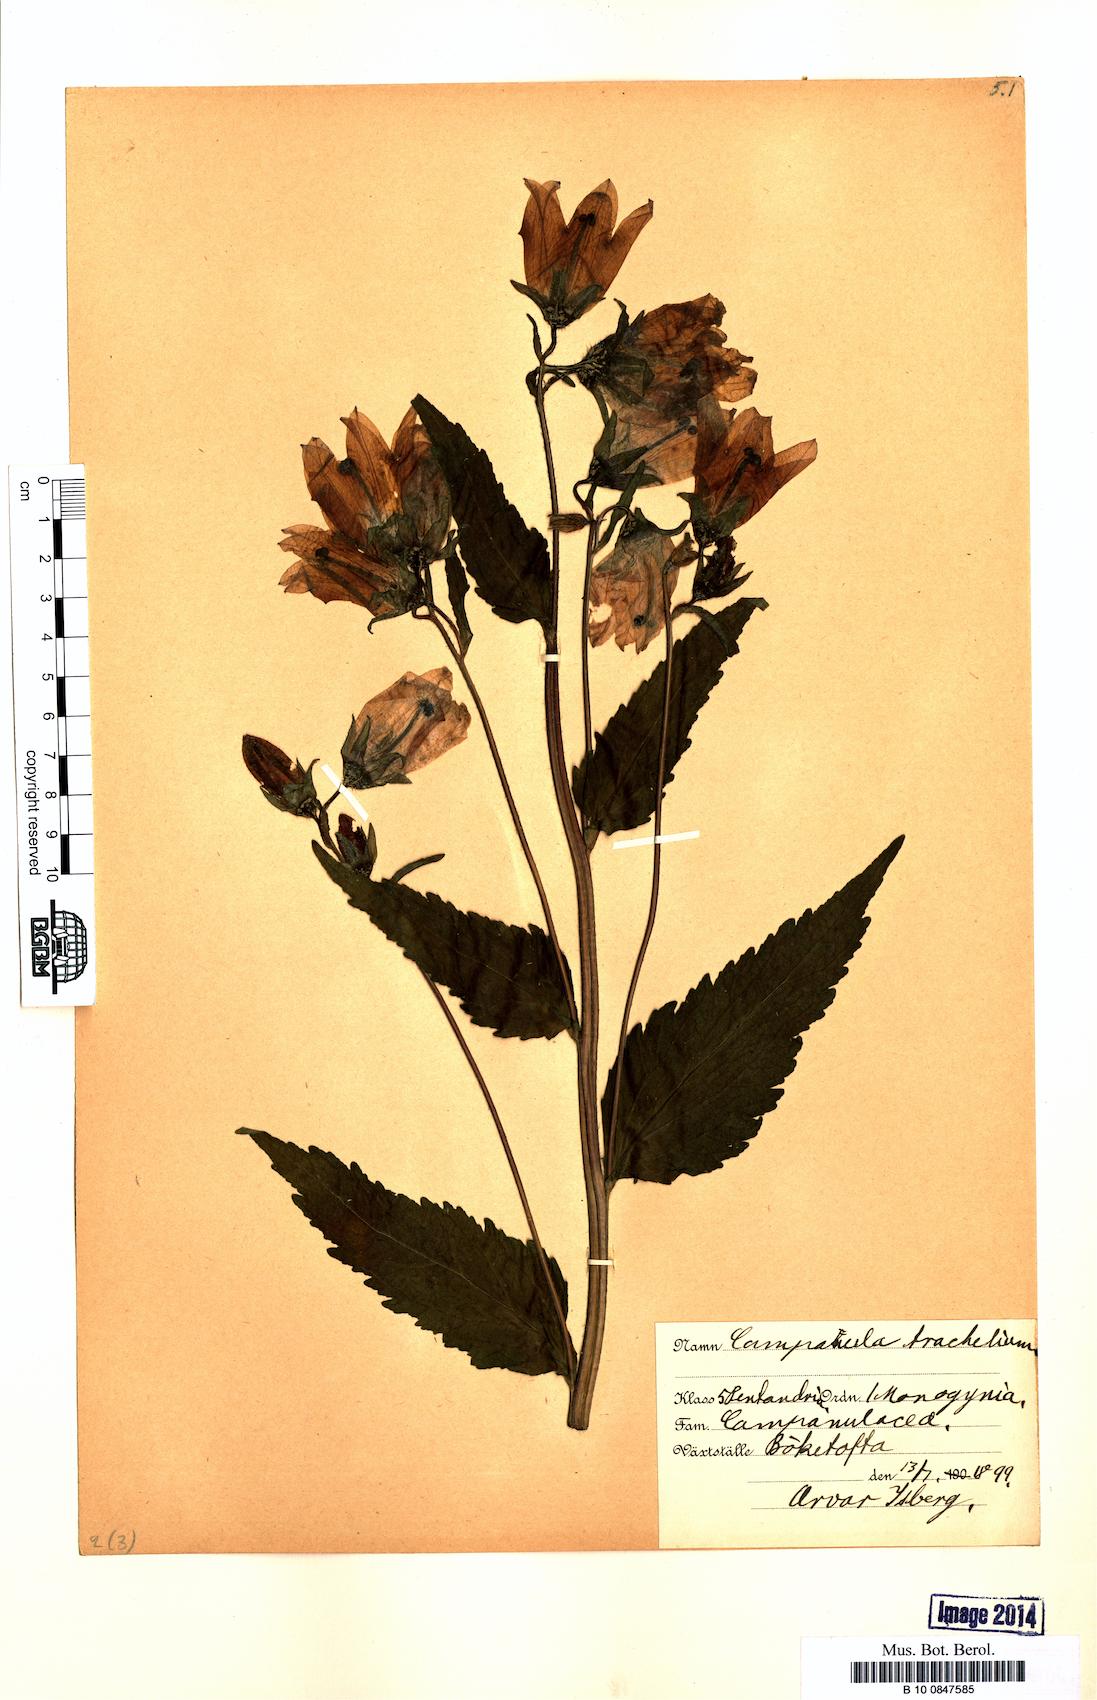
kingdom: Plantae
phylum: Tracheophyta
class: Magnoliopsida
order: Asterales
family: Campanulaceae
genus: Campanula
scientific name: Campanula trachelium
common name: Nettle-leaved bellflower
